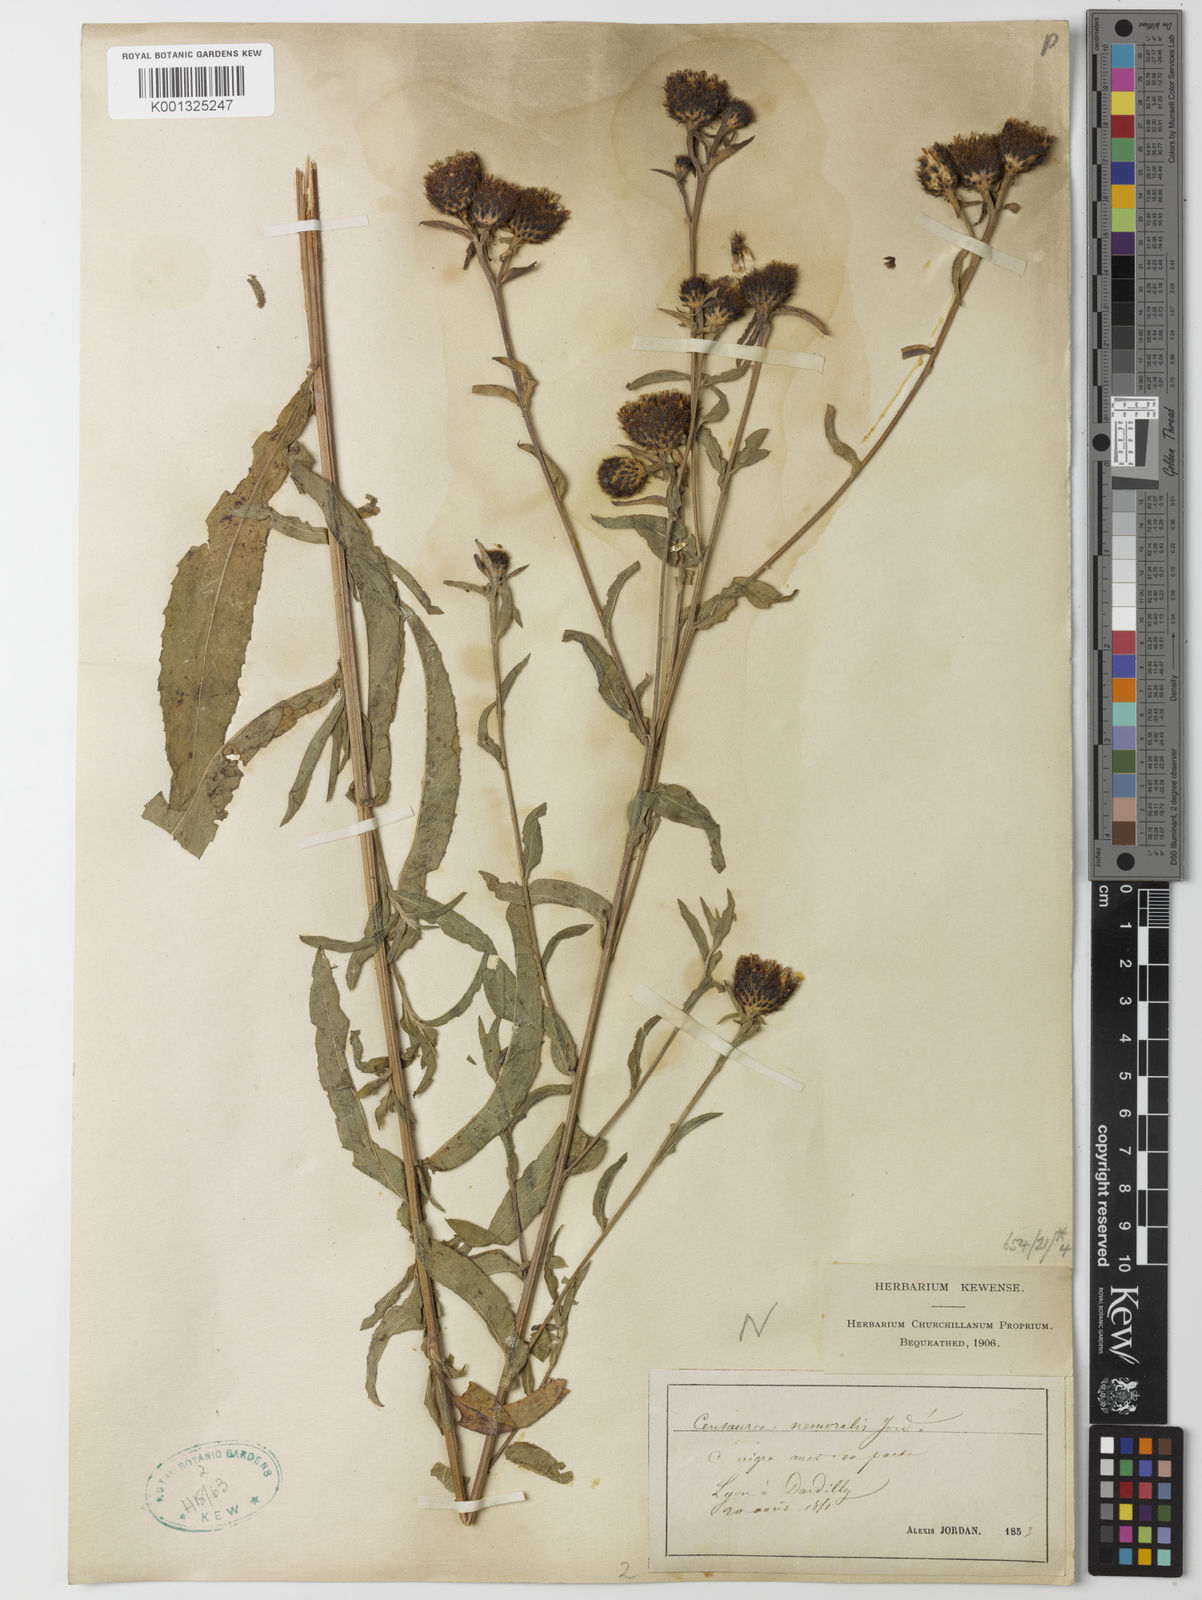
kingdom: Plantae
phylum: Tracheophyta
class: Magnoliopsida
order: Asterales
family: Asteraceae
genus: Centaurea
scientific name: Centaurea debeauxii
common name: Slender knapweed
